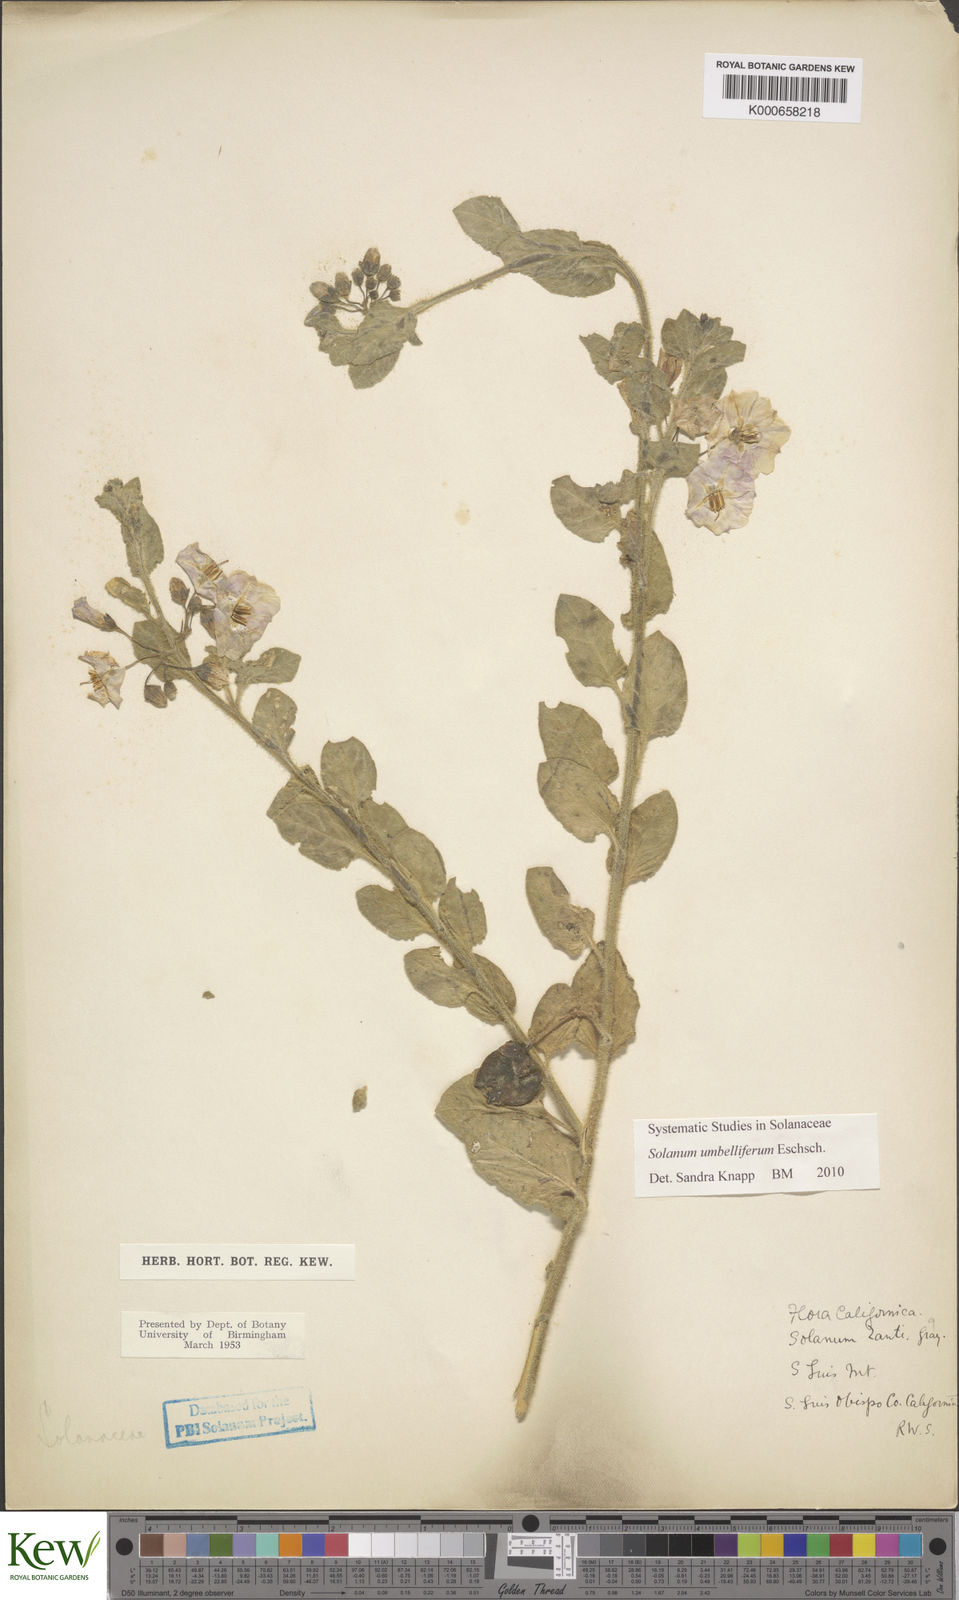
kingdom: Plantae
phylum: Tracheophyta
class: Magnoliopsida
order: Solanales
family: Solanaceae
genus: Solanum
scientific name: Solanum umbelliferum
